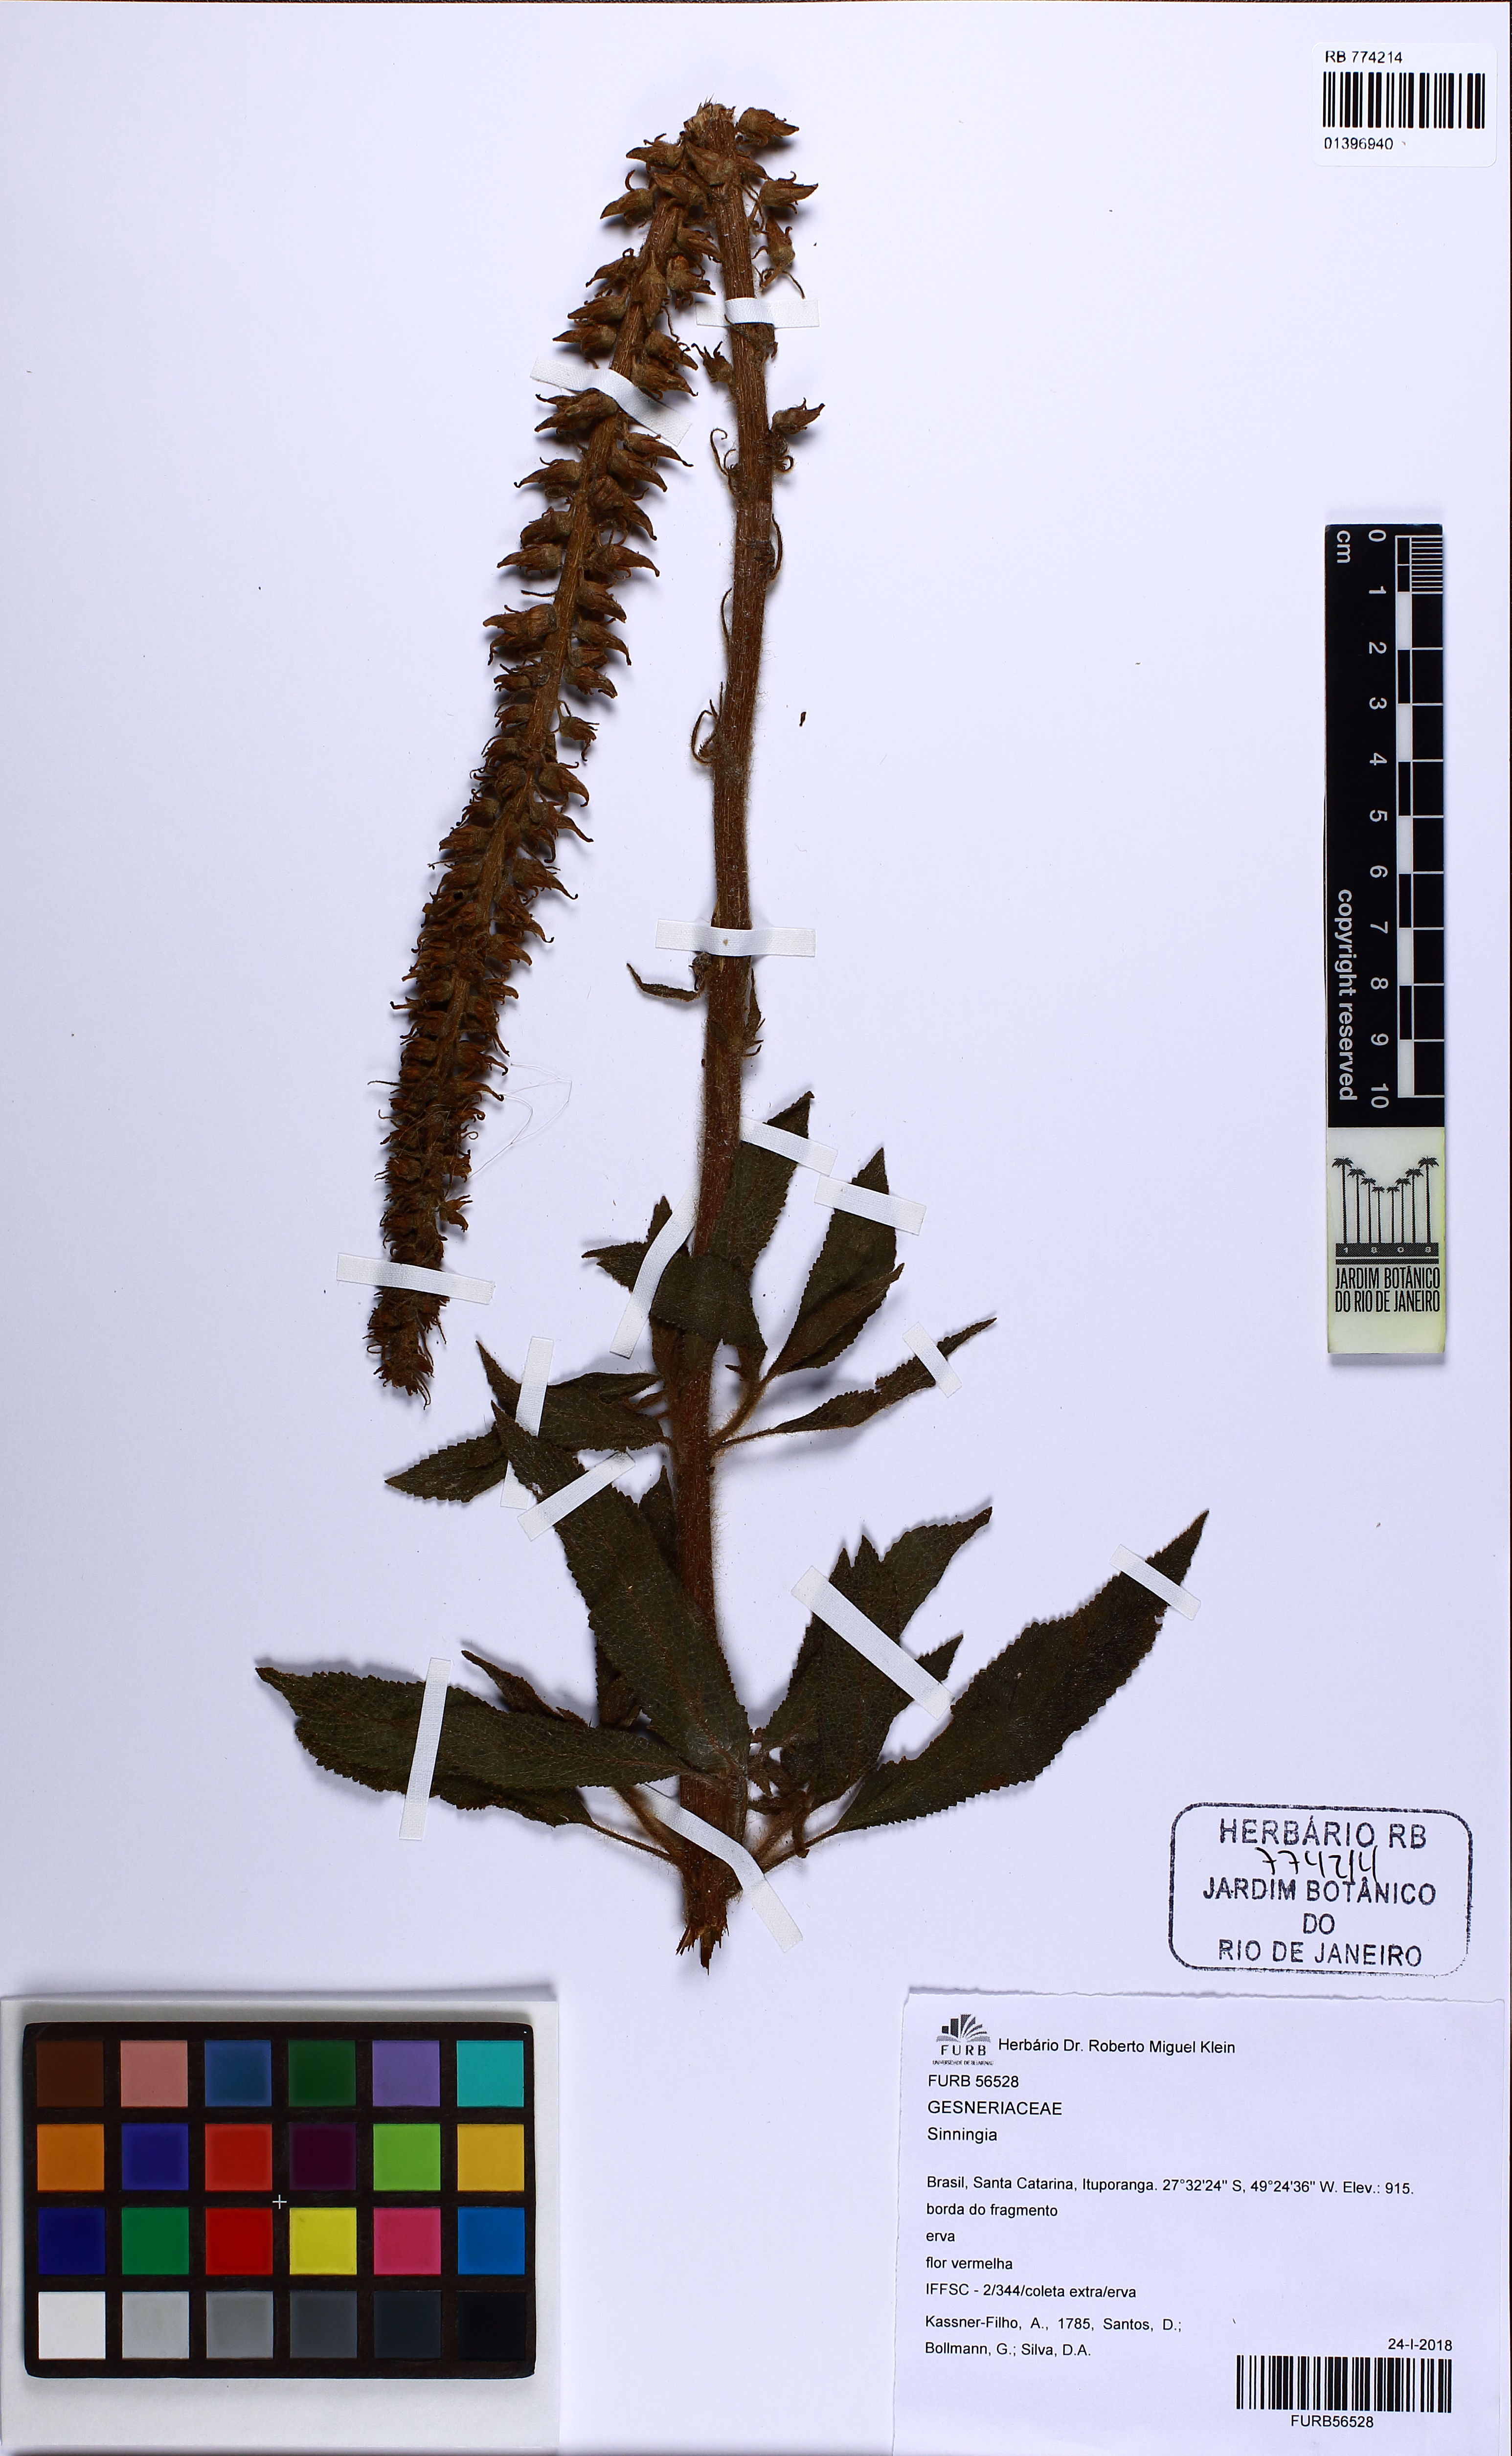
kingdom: Plantae
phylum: Tracheophyta
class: Magnoliopsida
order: Lamiales
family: Gesneriaceae
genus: Sinningia
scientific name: Sinningia
